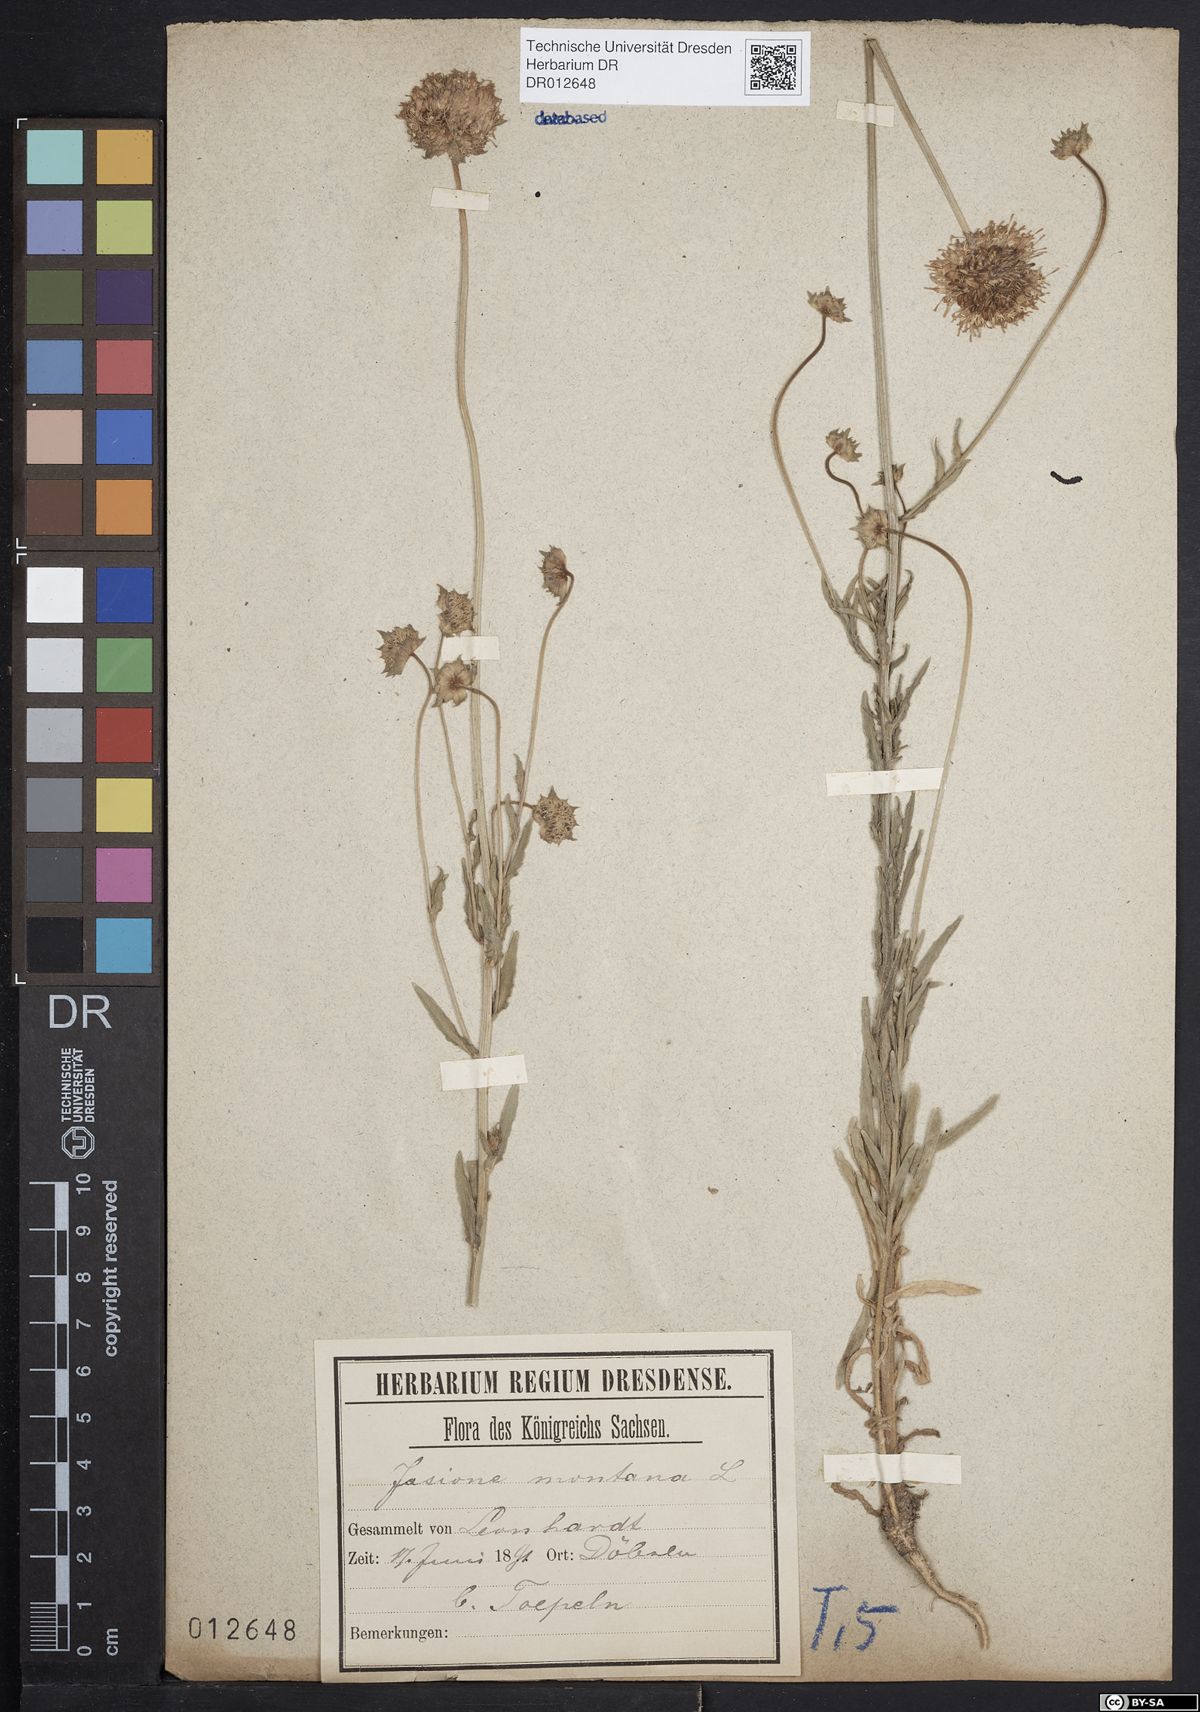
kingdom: Plantae
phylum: Tracheophyta
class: Magnoliopsida
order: Asterales
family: Campanulaceae
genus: Jasione
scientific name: Jasione montana
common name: Sheep's-bit
